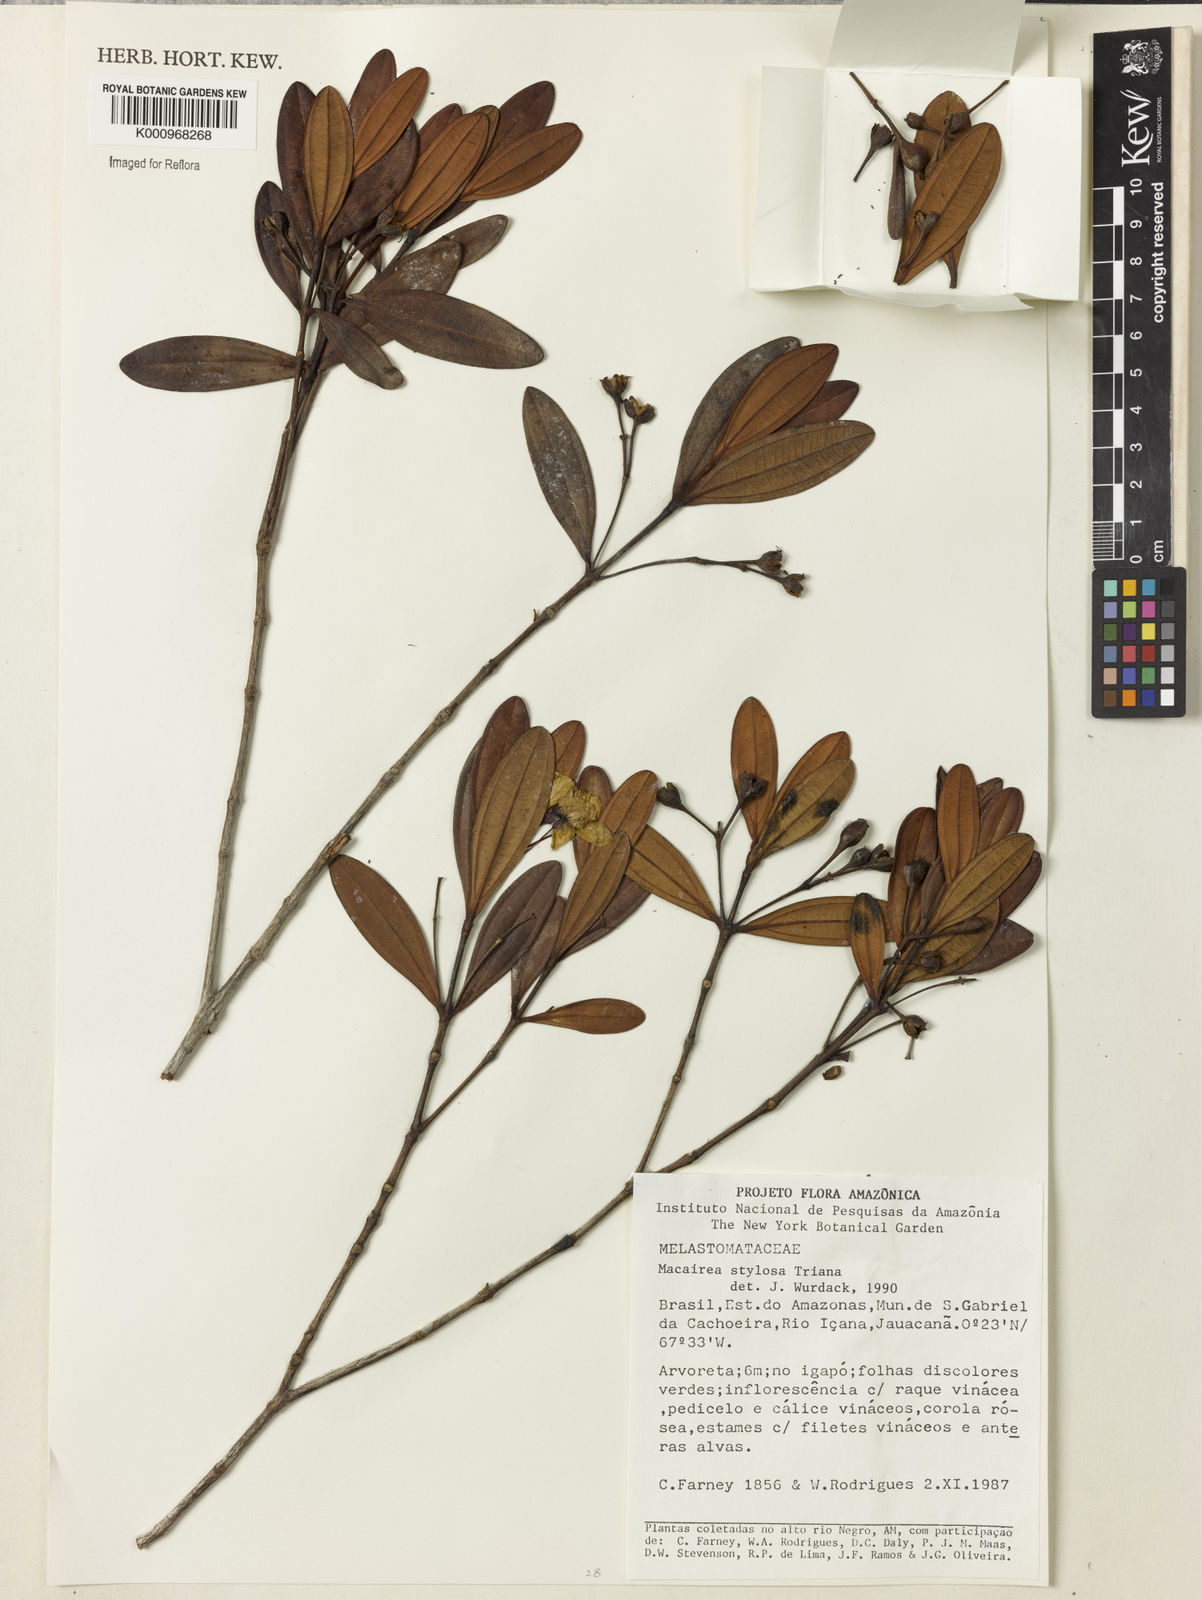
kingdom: Plantae
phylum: Tracheophyta
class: Magnoliopsida
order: Myrtales
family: Melastomataceae
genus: Macairea
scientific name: Macairea stylosa
